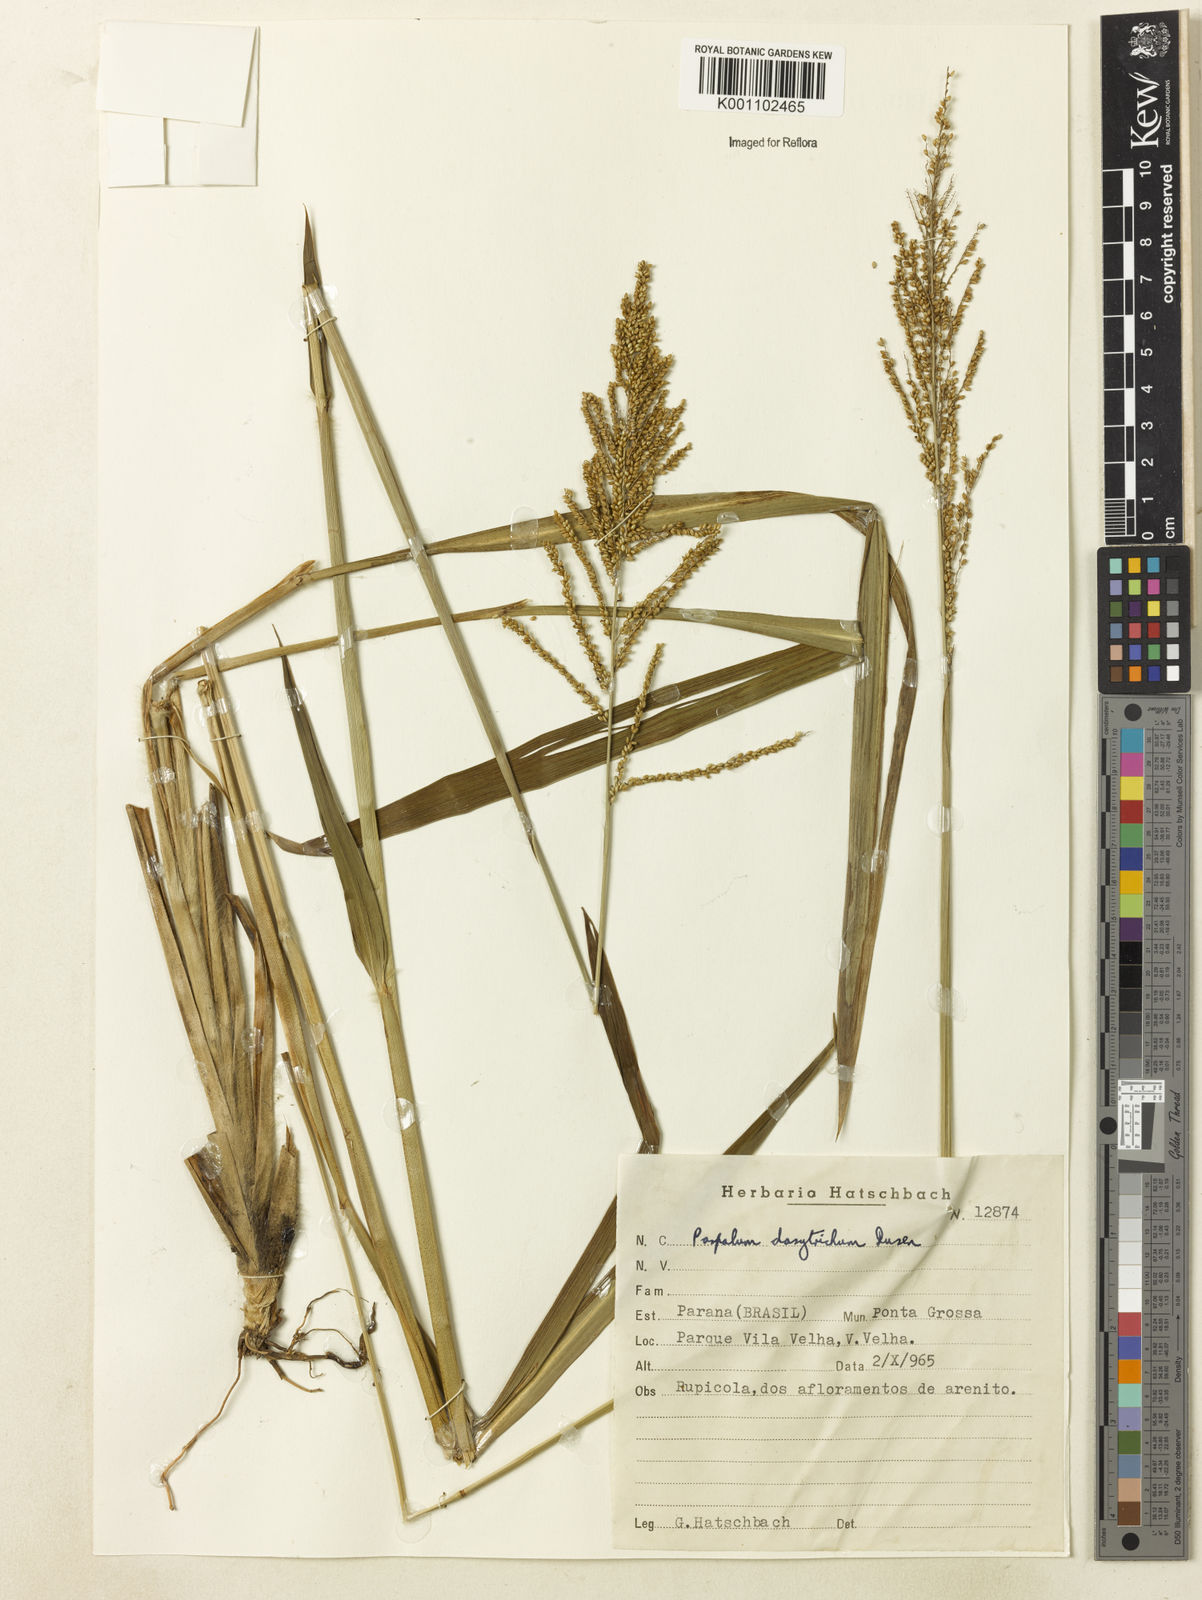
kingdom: Plantae
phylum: Tracheophyta
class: Liliopsida
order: Poales
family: Poaceae
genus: Paspalum
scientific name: Paspalum
